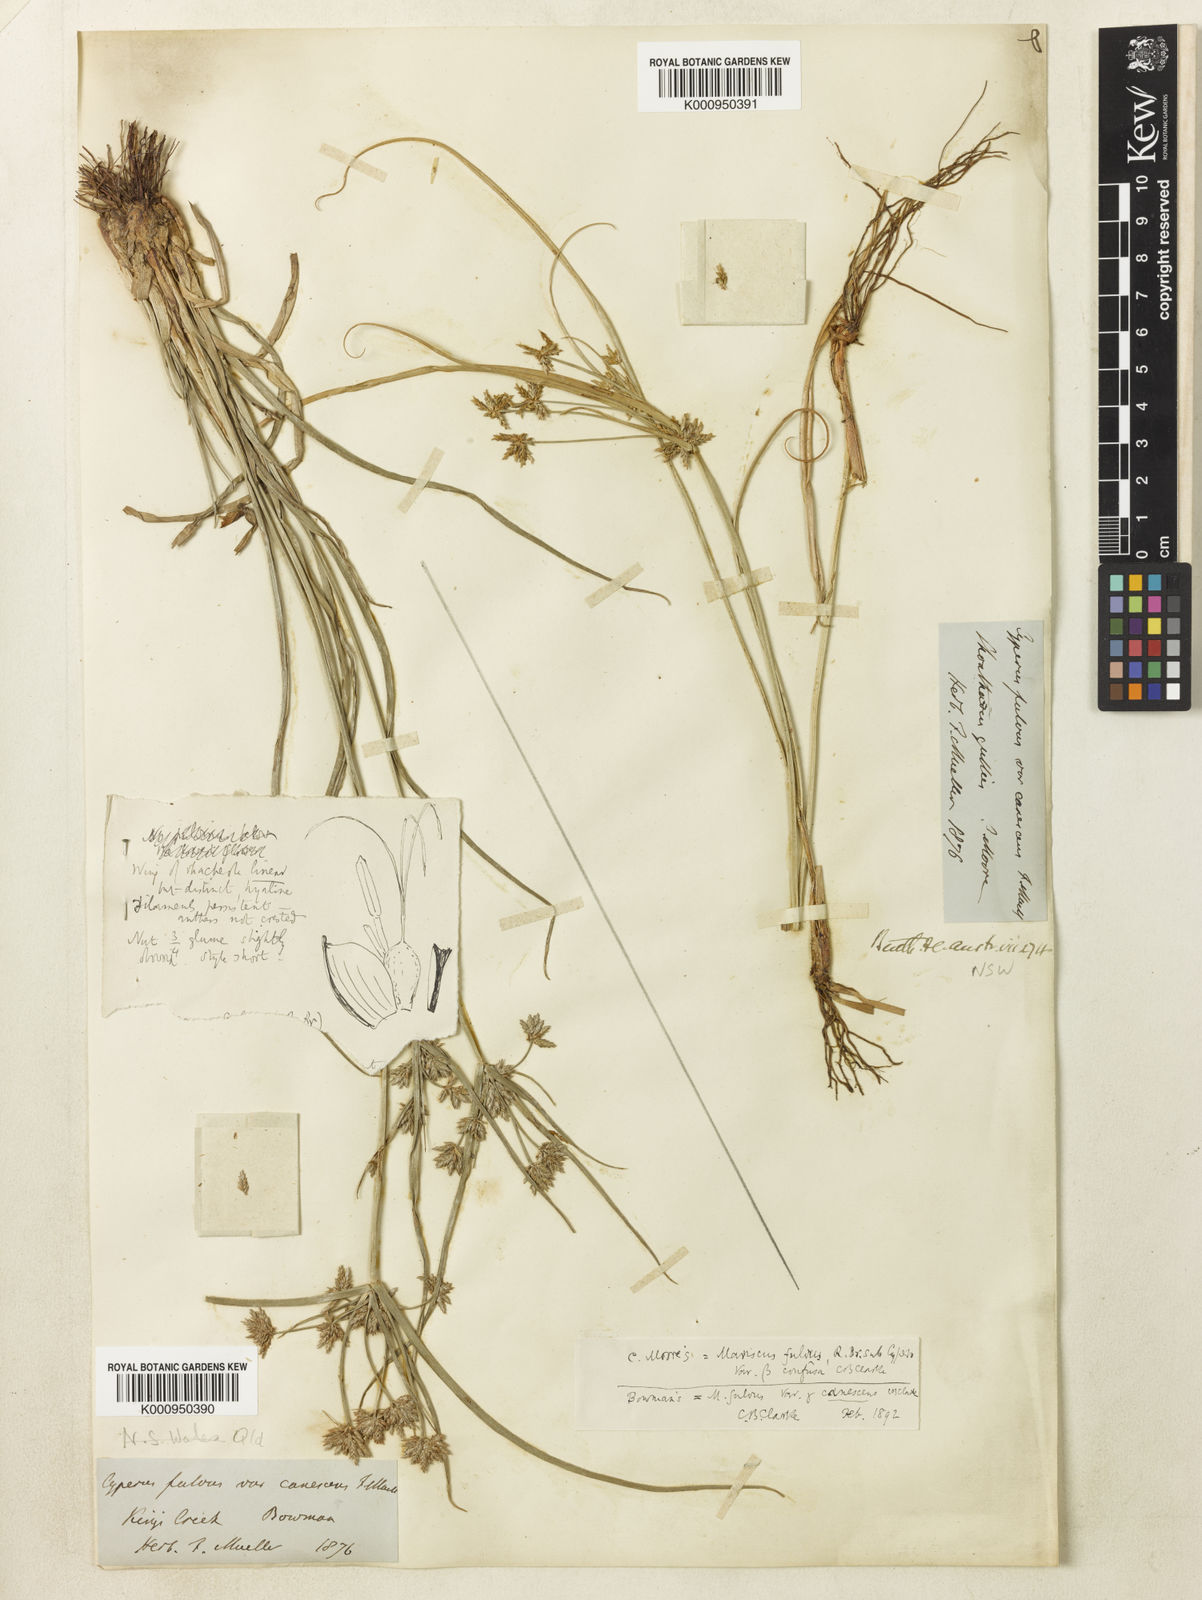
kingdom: Plantae
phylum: Tracheophyta
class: Liliopsida
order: Poales
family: Cyperaceae
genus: Cyperus
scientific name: Cyperus fulvus
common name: Sticky sedge
